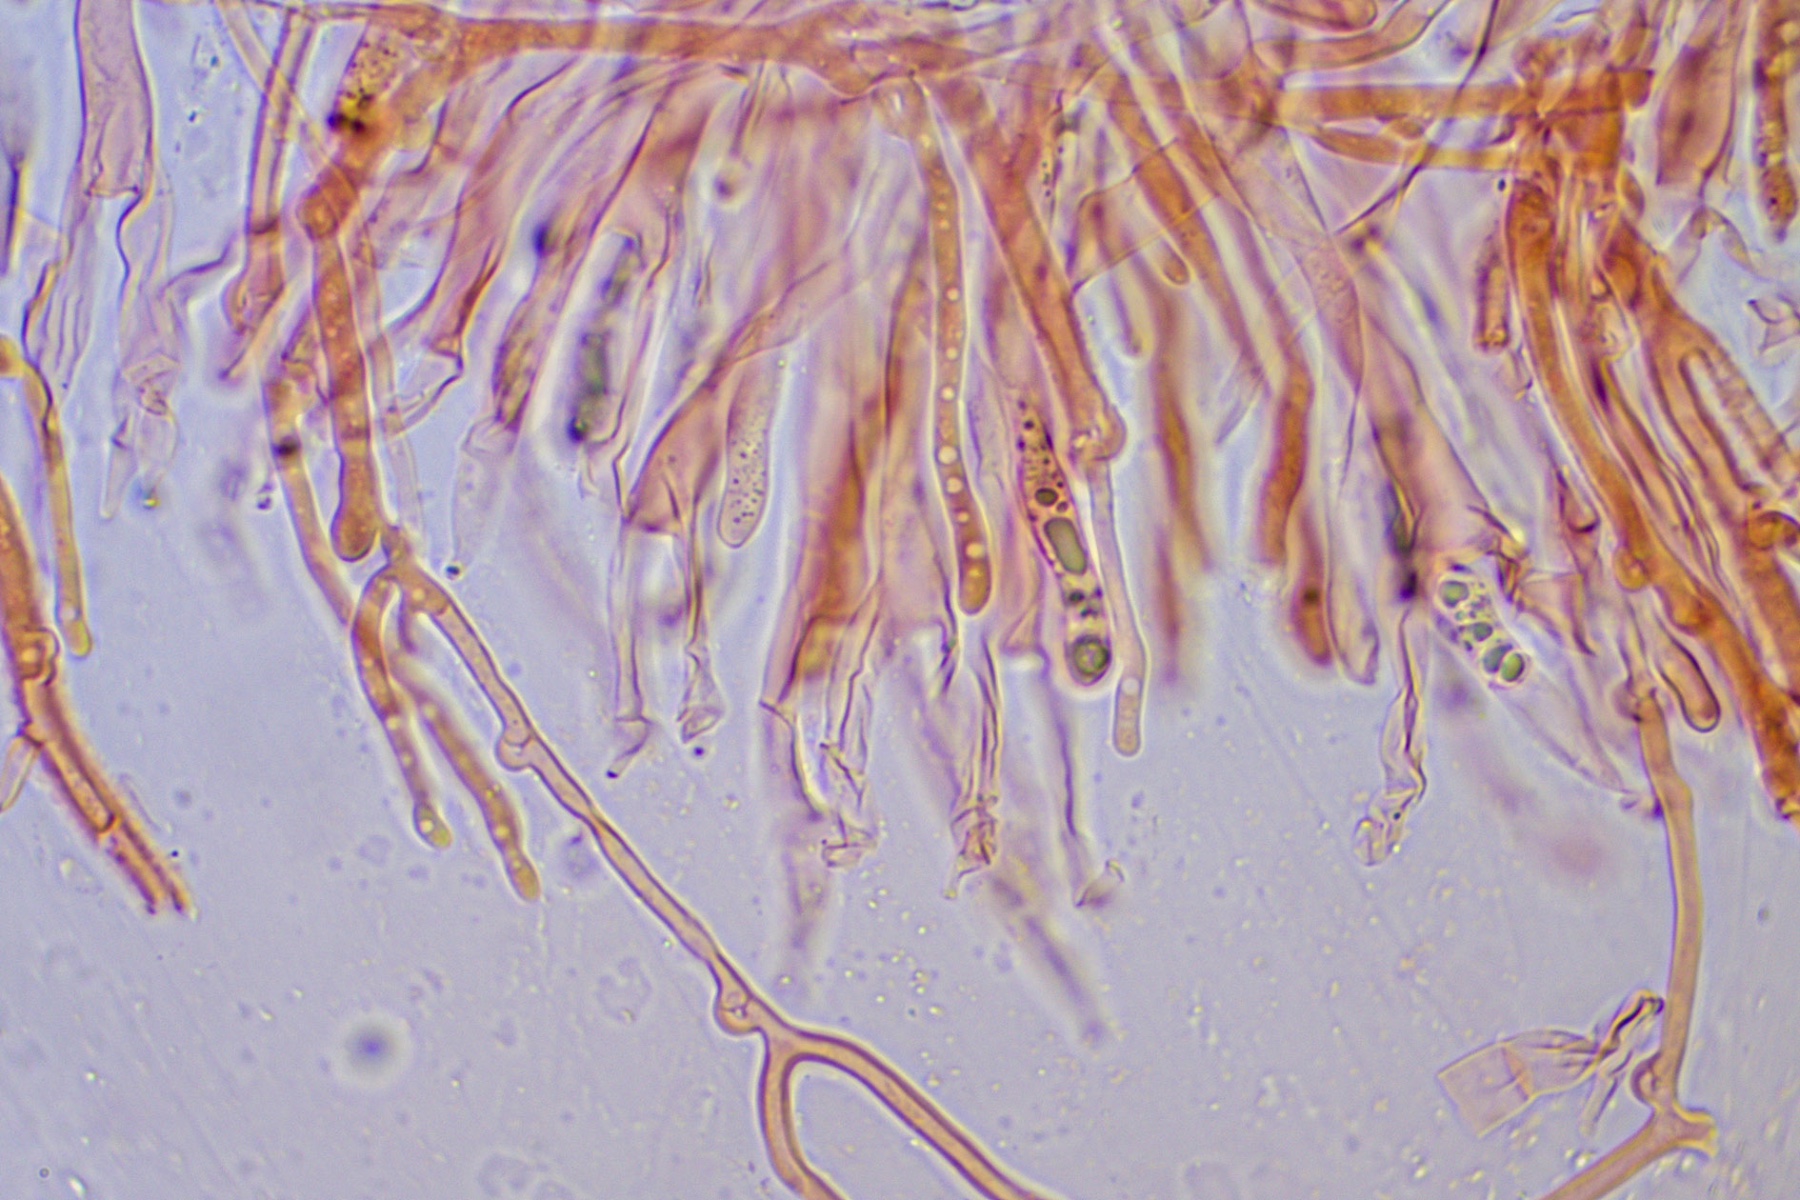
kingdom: Fungi
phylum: Basidiomycota
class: Dacrymycetes
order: Dacrymycetales
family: Dacrymycetaceae
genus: Dacrymyces
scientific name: Dacrymyces variisporus
